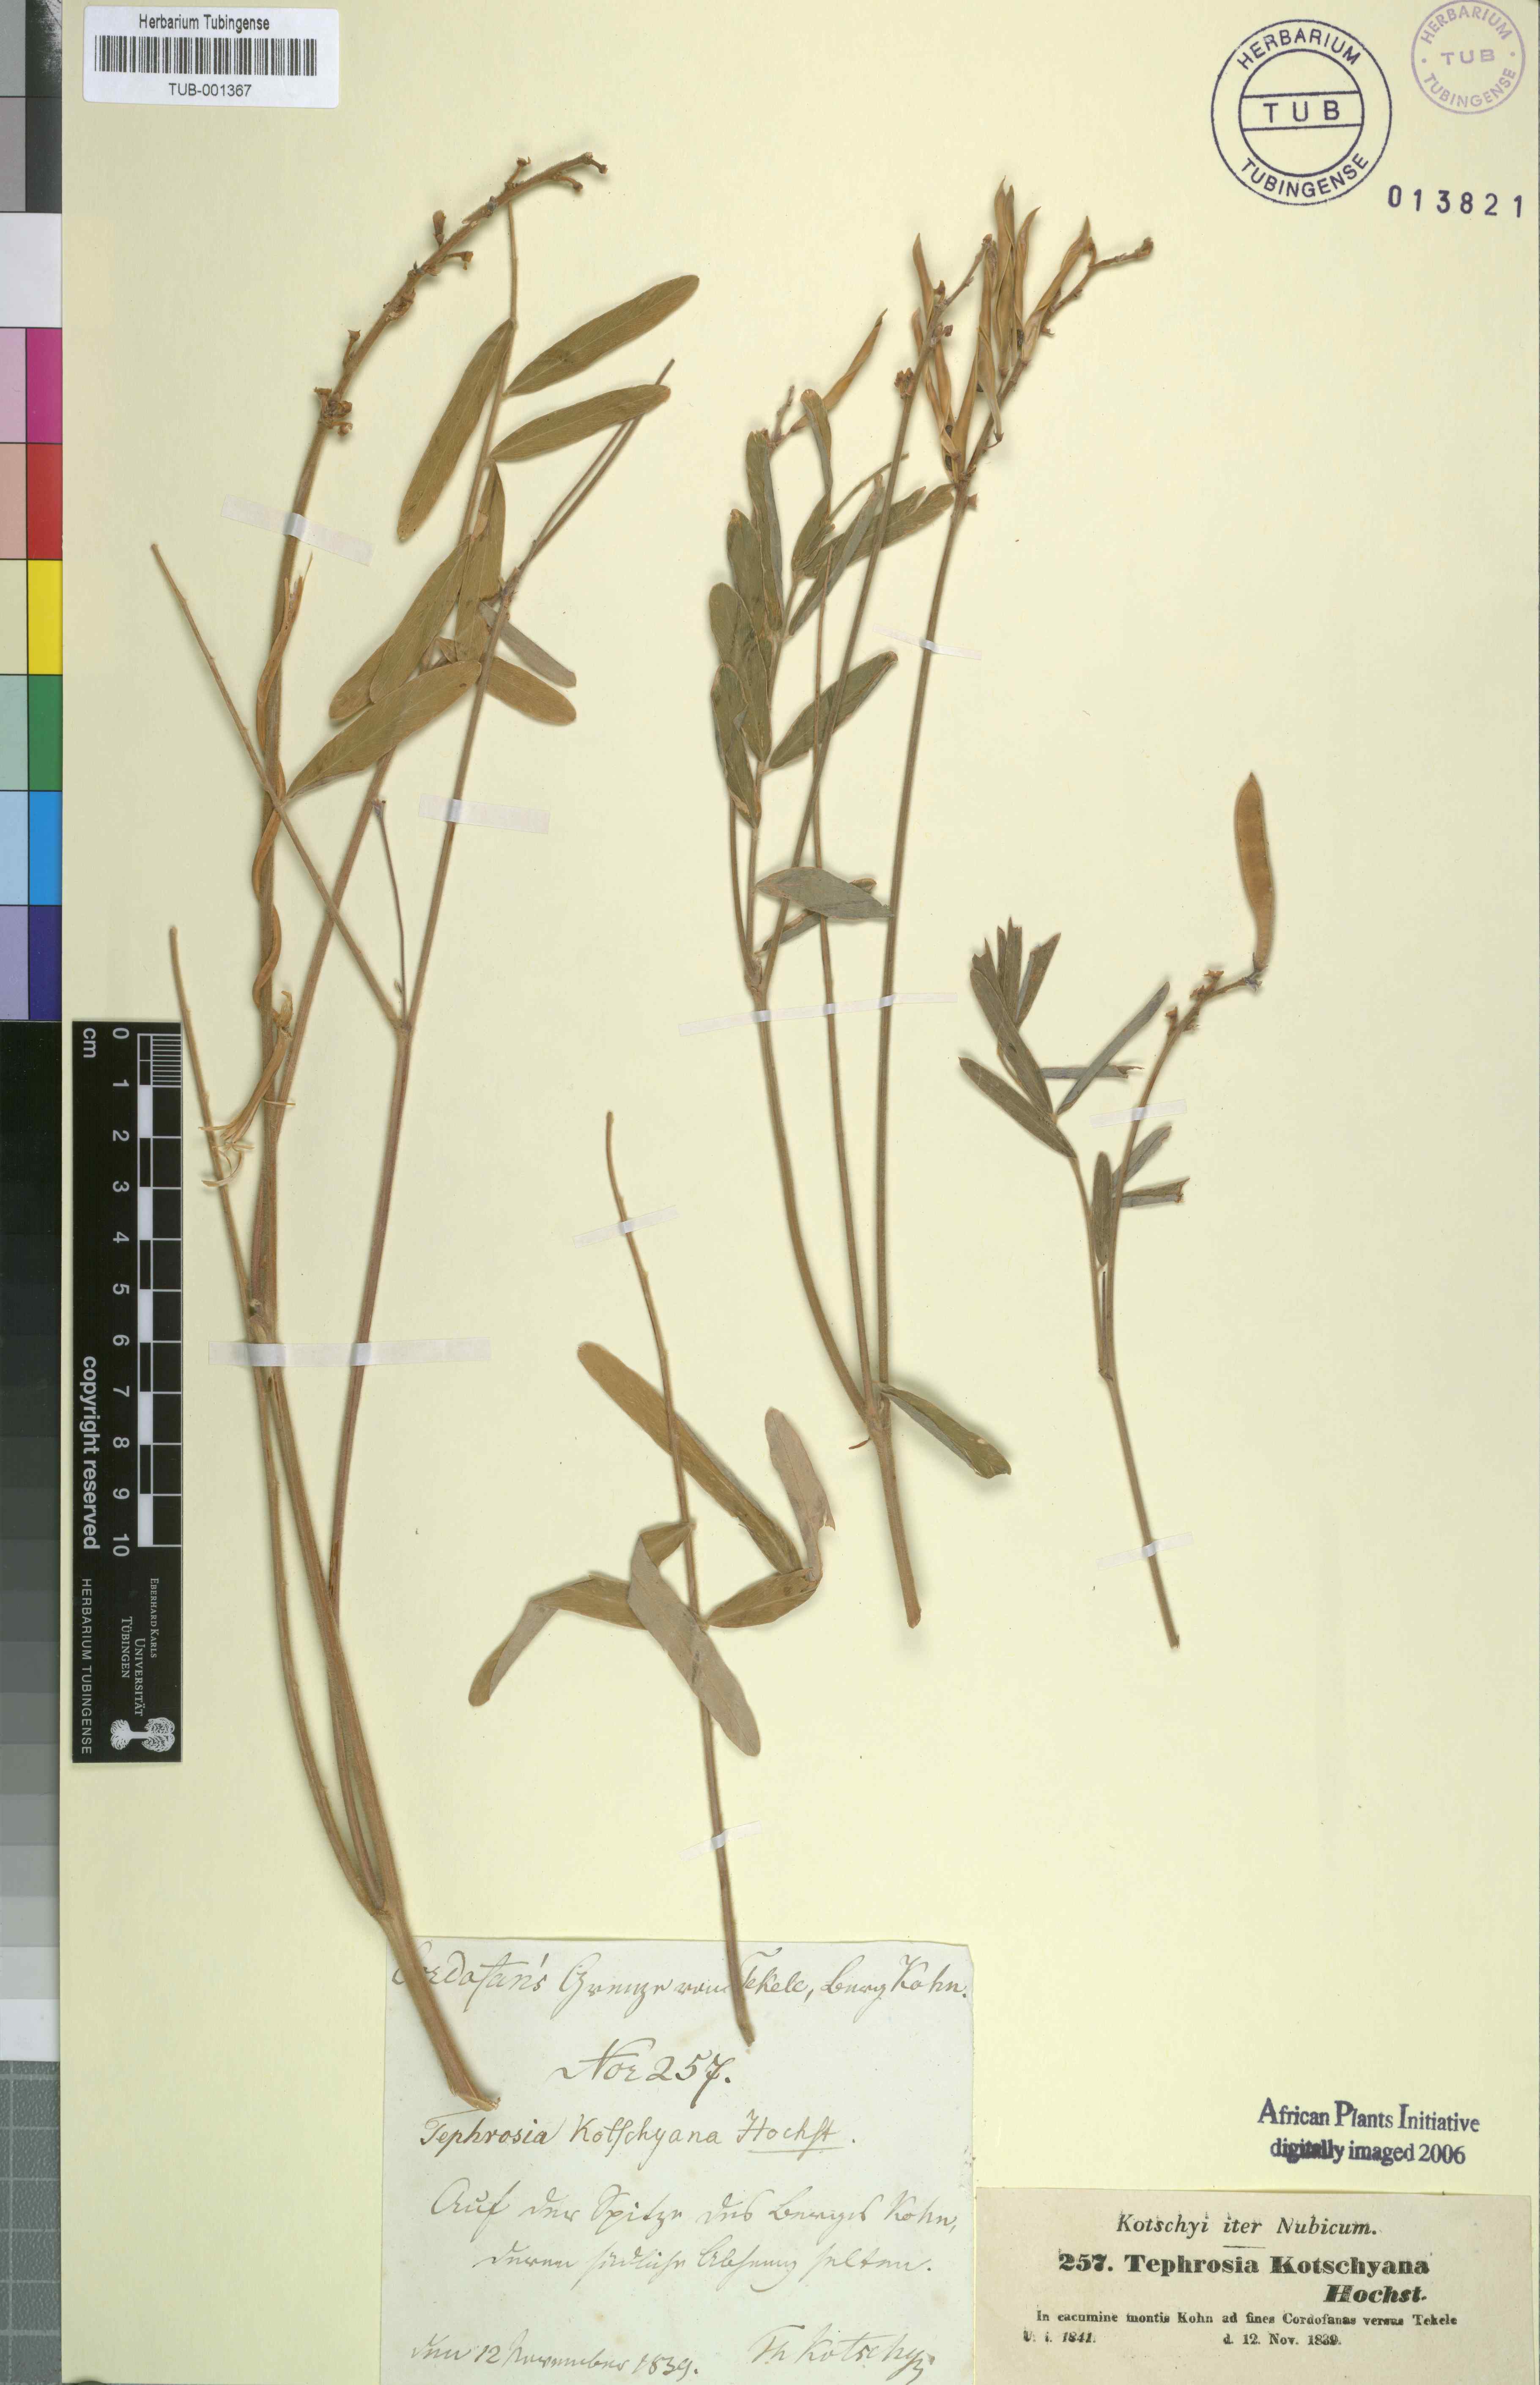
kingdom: Plantae
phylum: Tracheophyta
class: Magnoliopsida
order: Fabales
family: Fabaceae
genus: Tephrosia
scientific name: Tephrosia bracteolata
